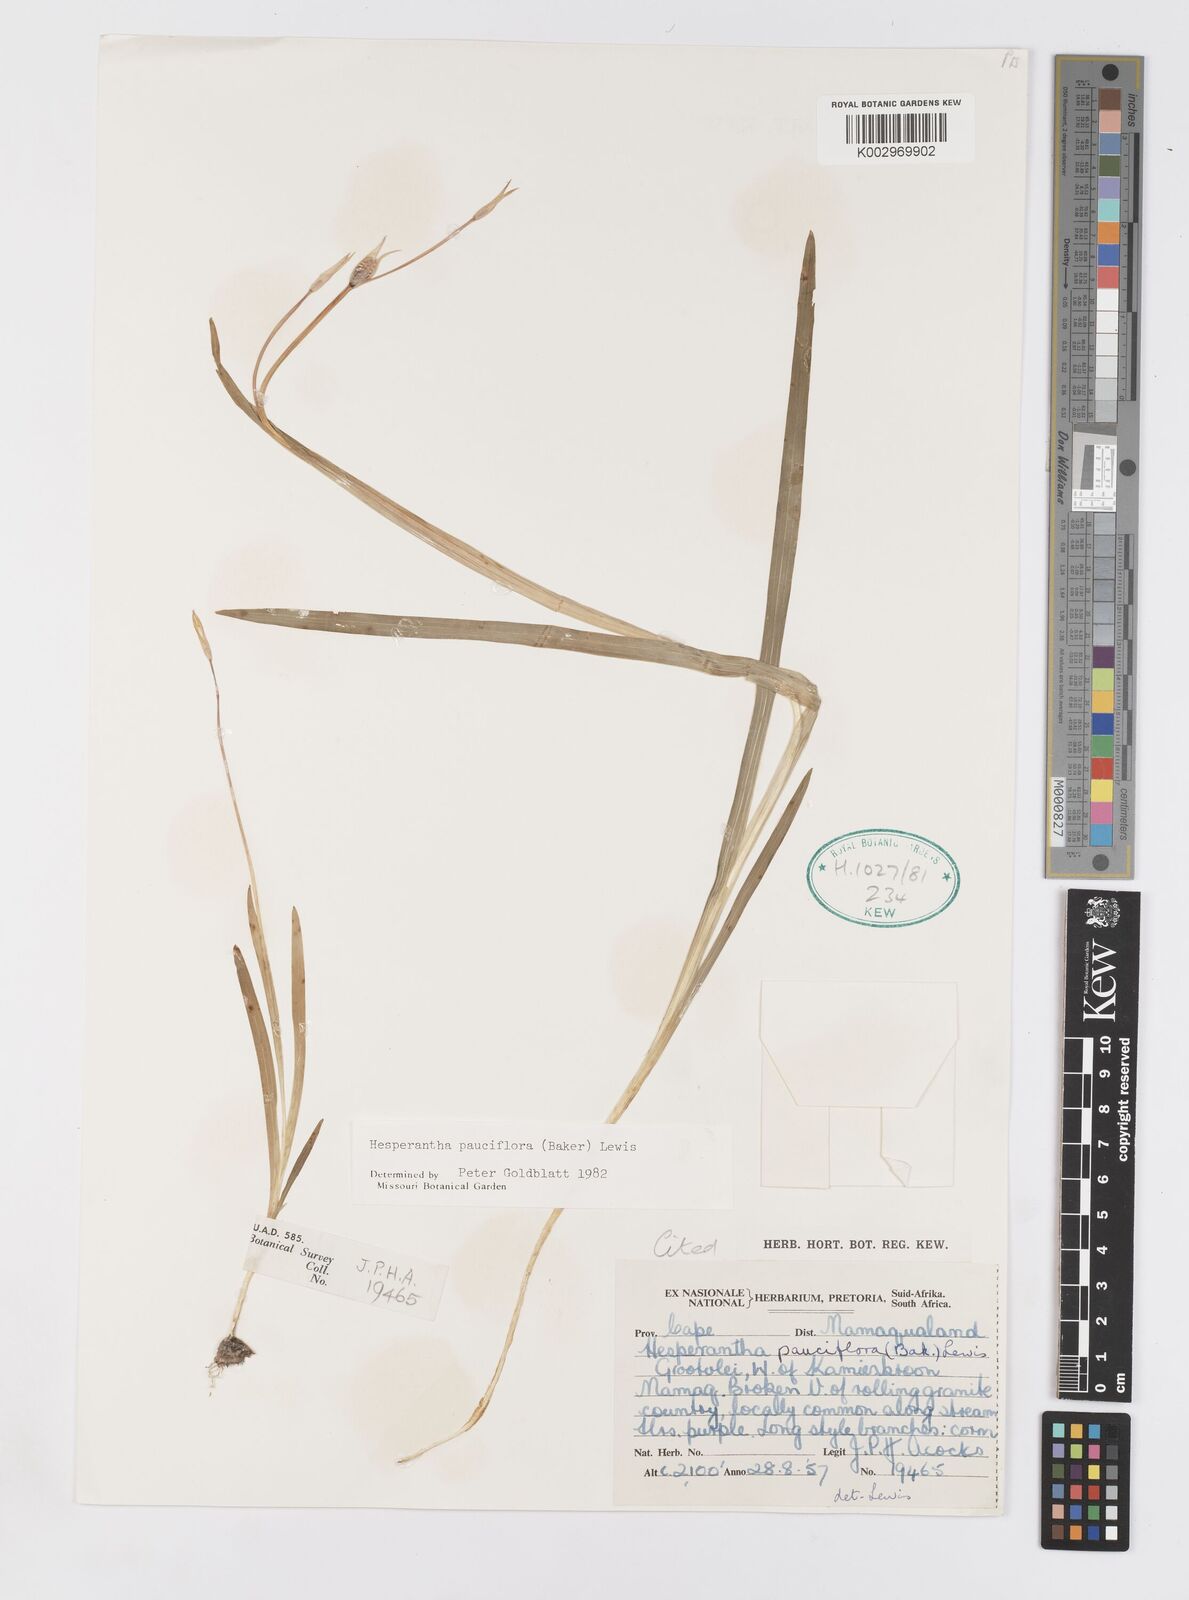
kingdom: Plantae
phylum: Tracheophyta
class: Liliopsida
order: Asparagales
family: Iridaceae
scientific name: Iridaceae
